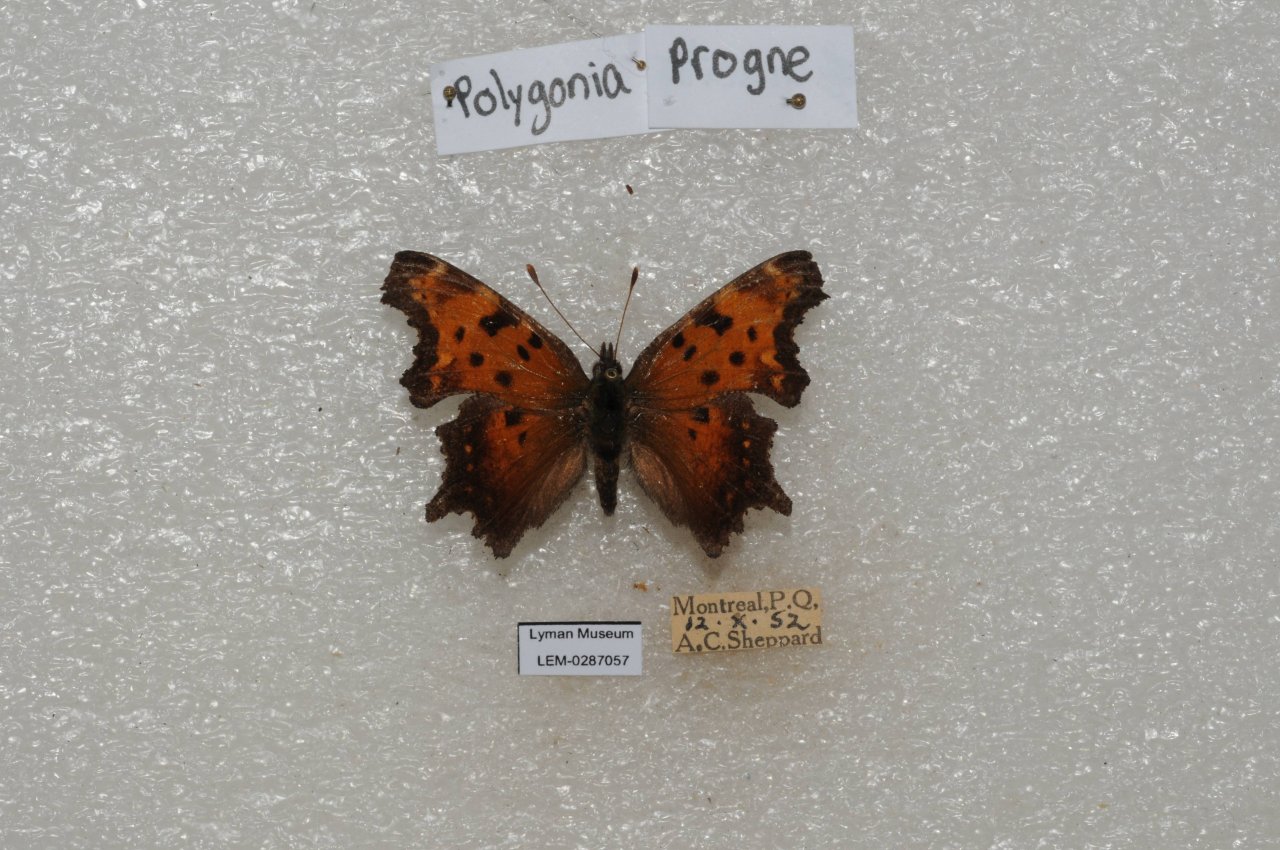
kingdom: Animalia
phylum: Arthropoda
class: Insecta
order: Lepidoptera
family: Nymphalidae
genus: Polygonia
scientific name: Polygonia progne
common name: Gray Comma
